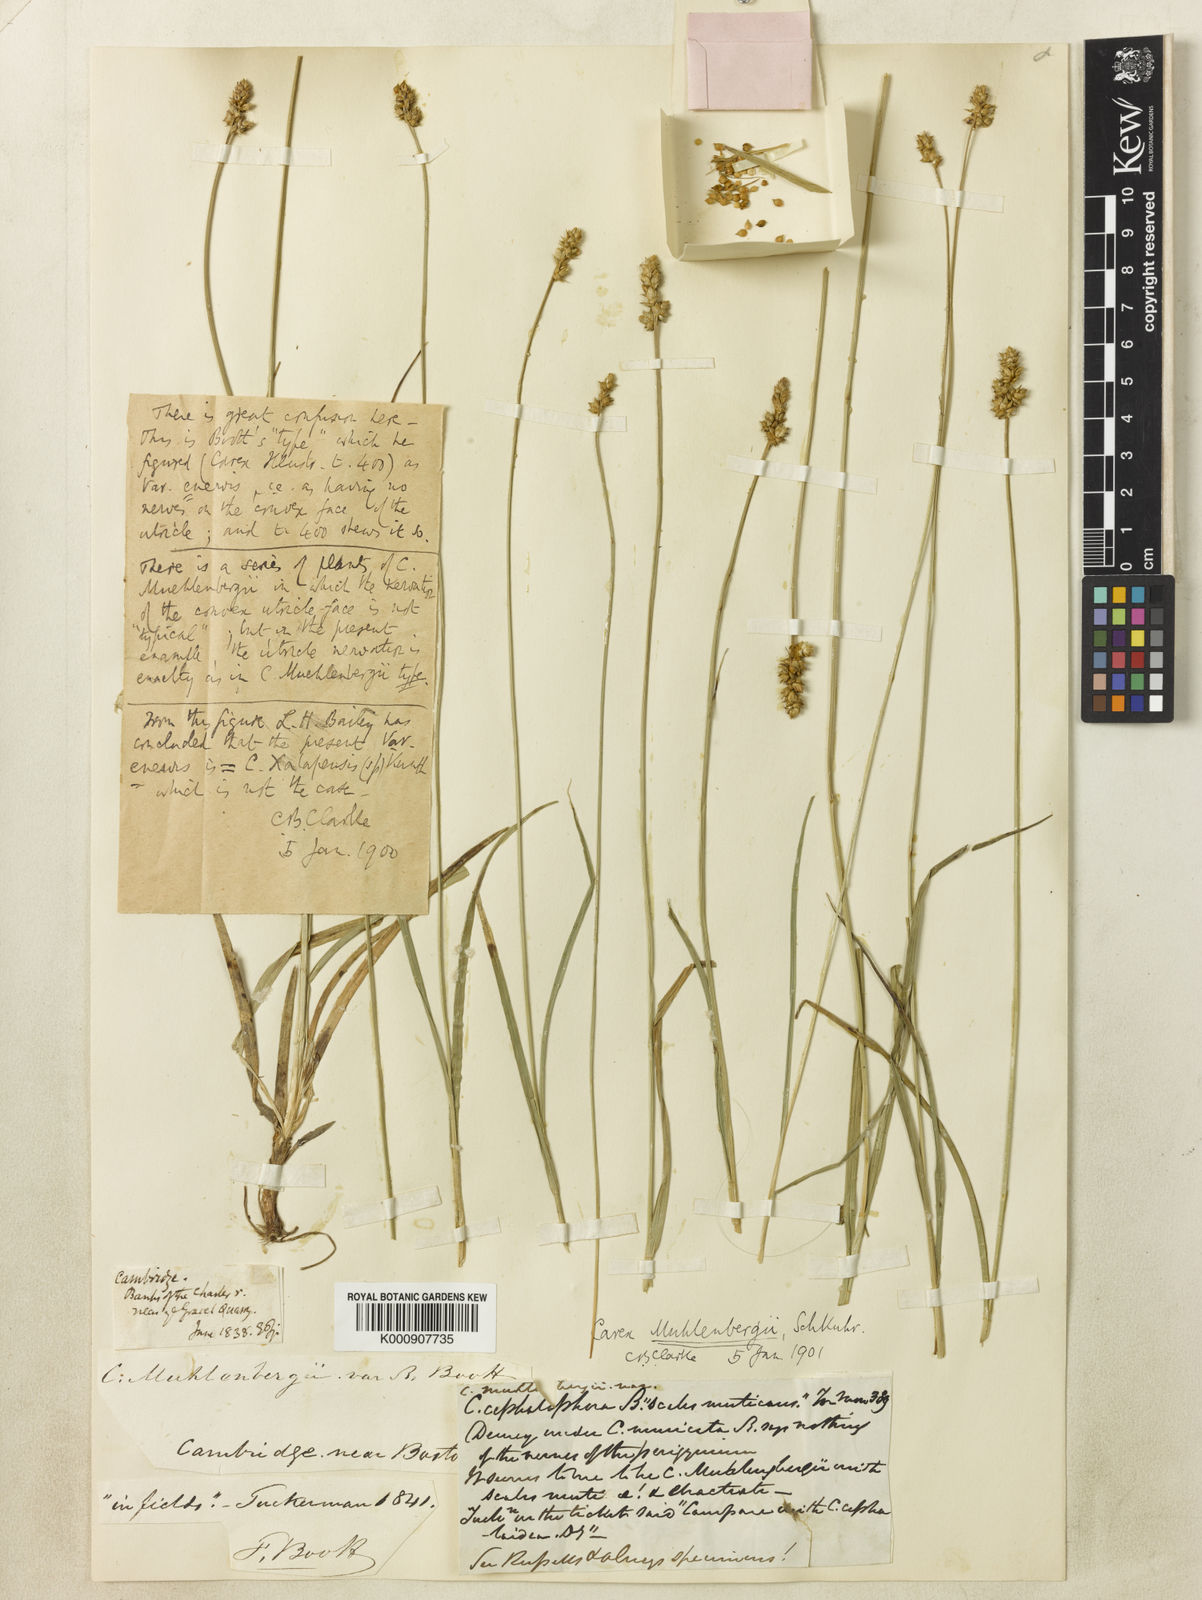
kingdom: Plantae
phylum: Tracheophyta
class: Liliopsida
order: Poales
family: Cyperaceae
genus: Carex
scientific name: Carex muehlenbergii
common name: Muhlenberg's bracted sedge
